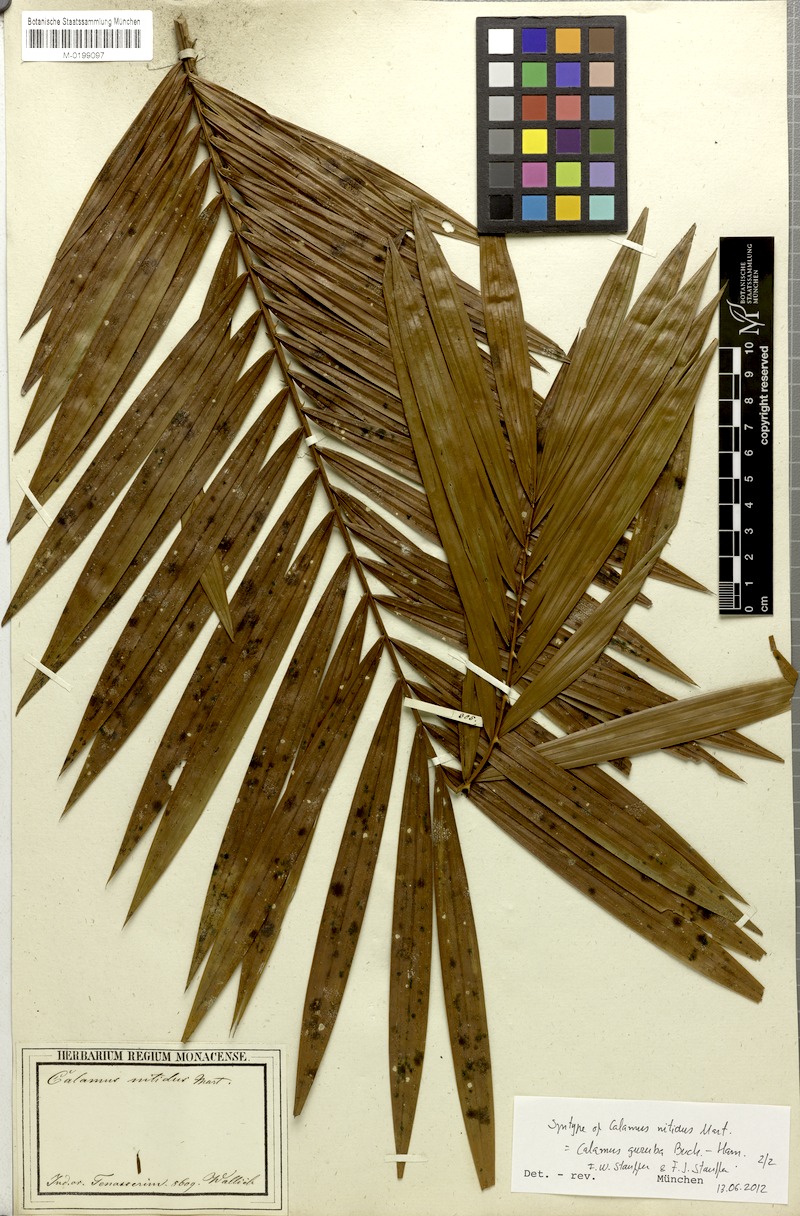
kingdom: Plantae
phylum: Tracheophyta
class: Liliopsida
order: Arecales
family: Arecaceae
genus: Calamus
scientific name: Calamus nitidus
